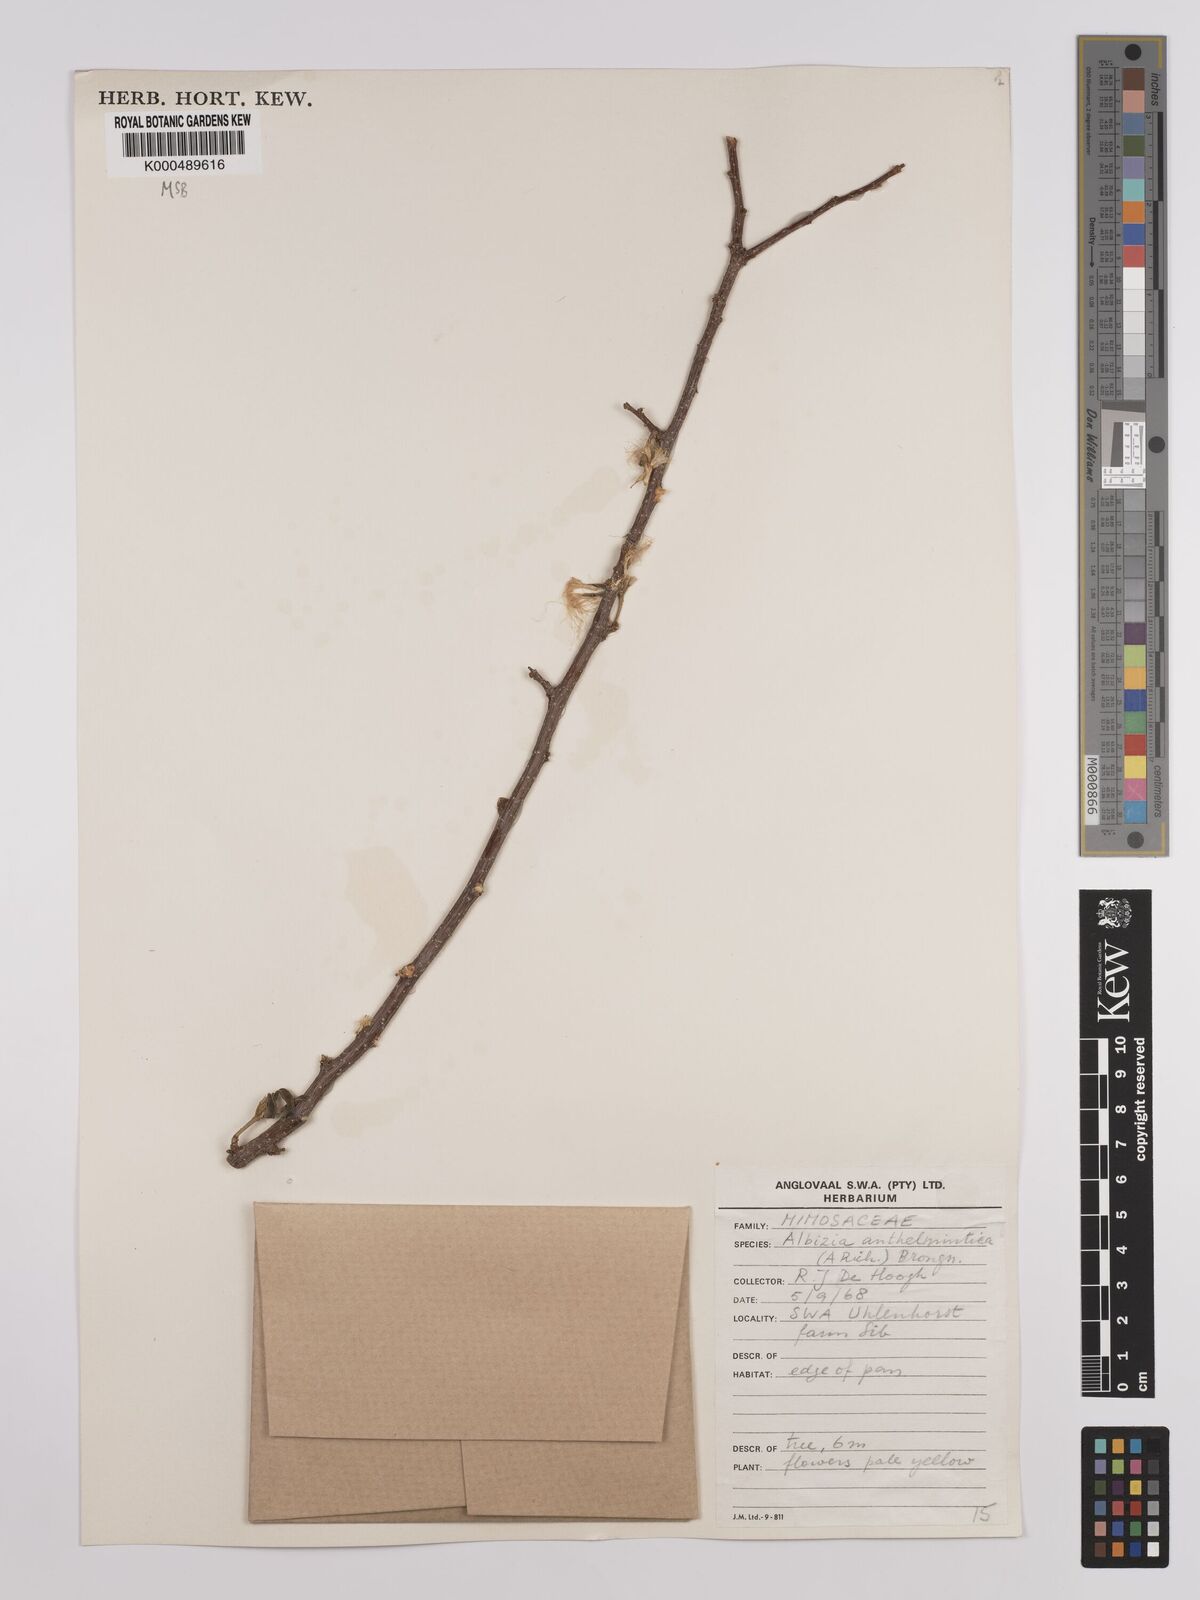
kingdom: Plantae
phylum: Tracheophyta
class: Magnoliopsida
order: Fabales
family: Fabaceae
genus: Albizia
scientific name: Albizia anthelmintica
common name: Worm-bark false-thorn
